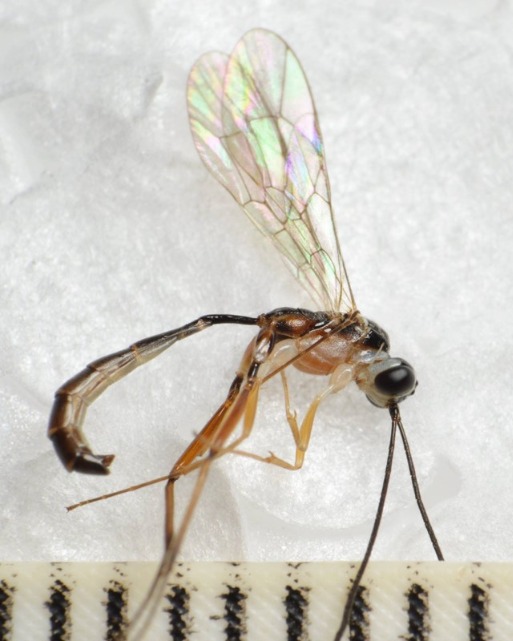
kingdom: Animalia
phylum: Arthropoda
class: Insecta
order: Hymenoptera
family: Ichneumonidae
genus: Nematopodius
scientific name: Nematopodius debilis
